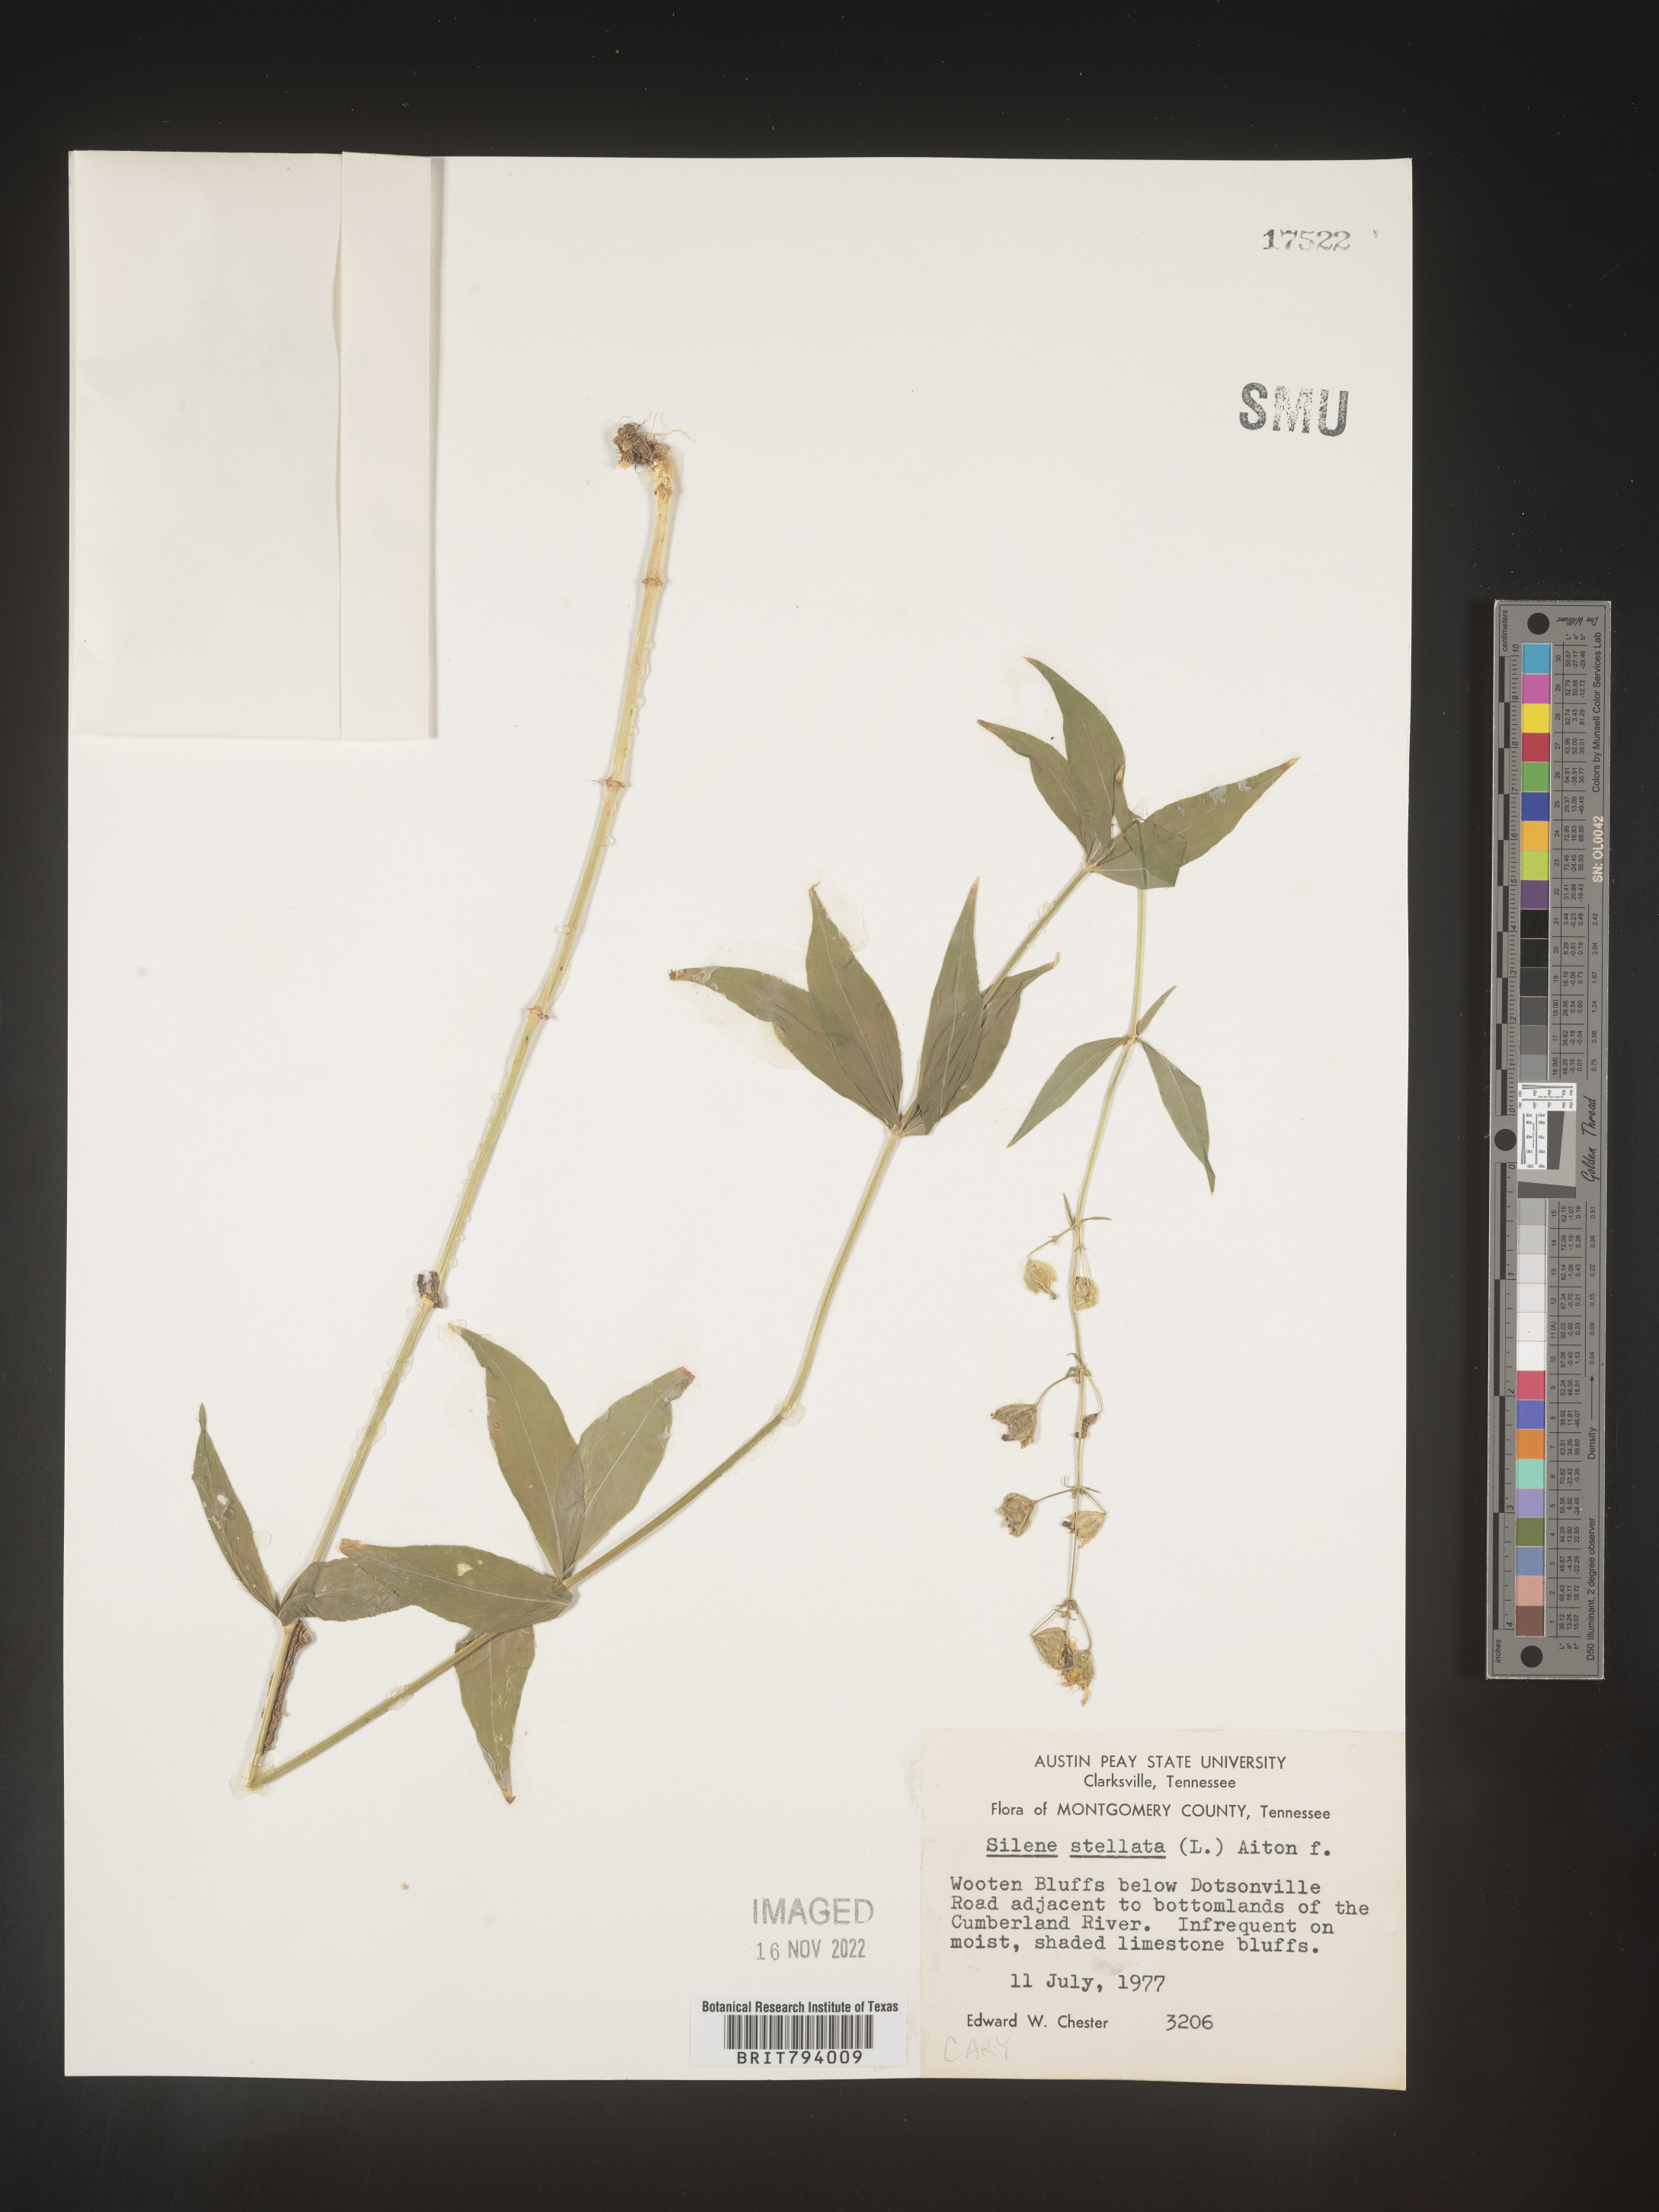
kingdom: Plantae
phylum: Tracheophyta
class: Magnoliopsida
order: Caryophyllales
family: Caryophyllaceae
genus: Silene
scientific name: Silene stellata
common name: Starry campion
